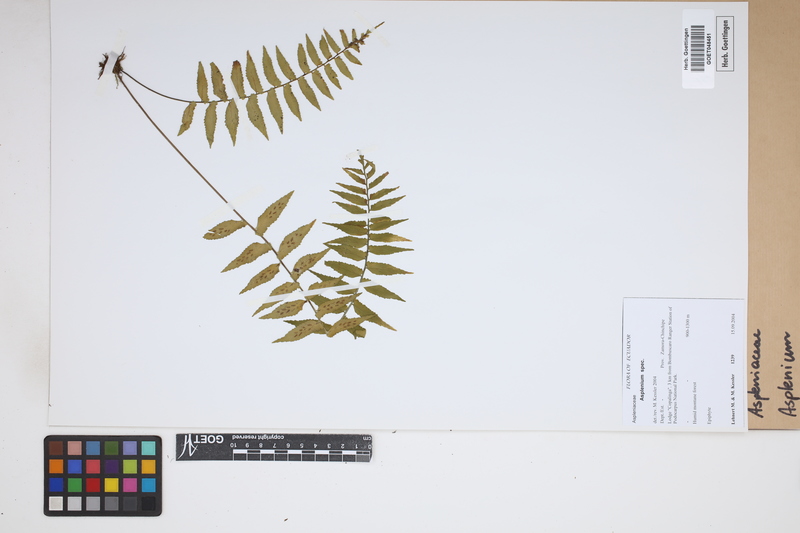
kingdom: Plantae
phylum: Tracheophyta
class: Polypodiopsida
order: Polypodiales
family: Aspleniaceae
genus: Asplenium
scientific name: Asplenium
